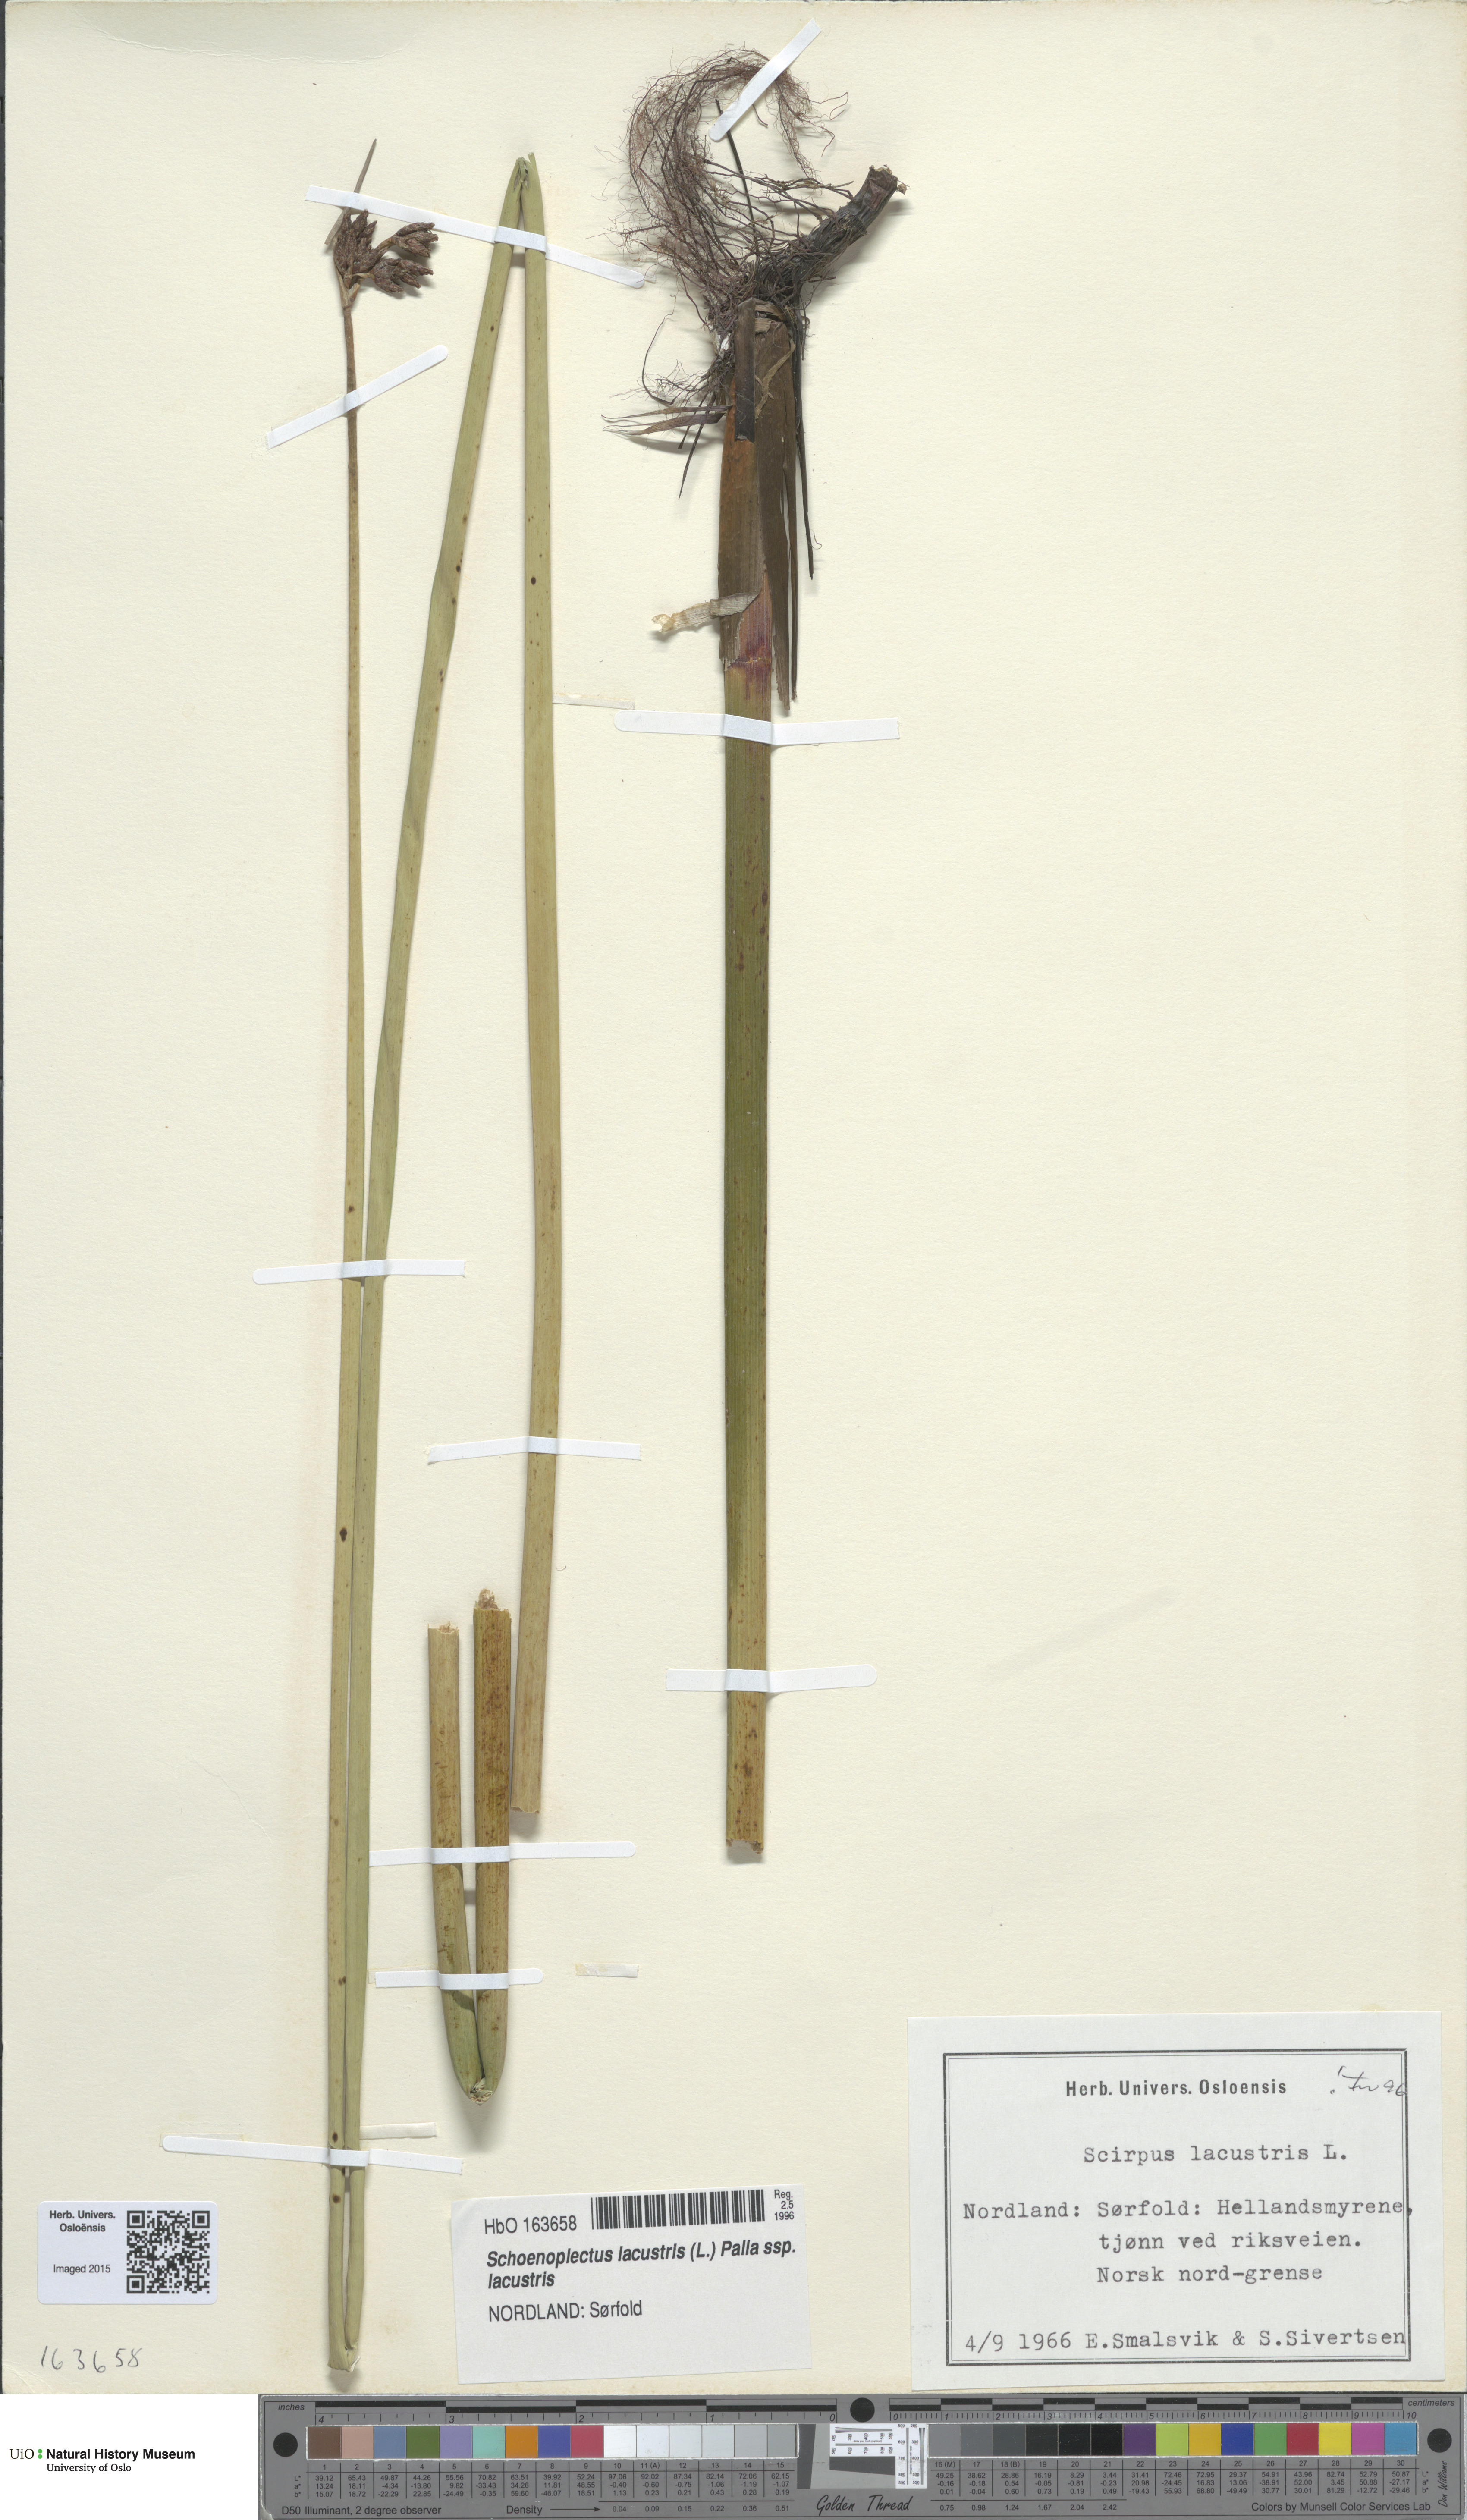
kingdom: Plantae
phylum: Tracheophyta
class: Liliopsida
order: Poales
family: Cyperaceae
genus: Schoenoplectus
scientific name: Schoenoplectus lacustris
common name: Common club-rush
